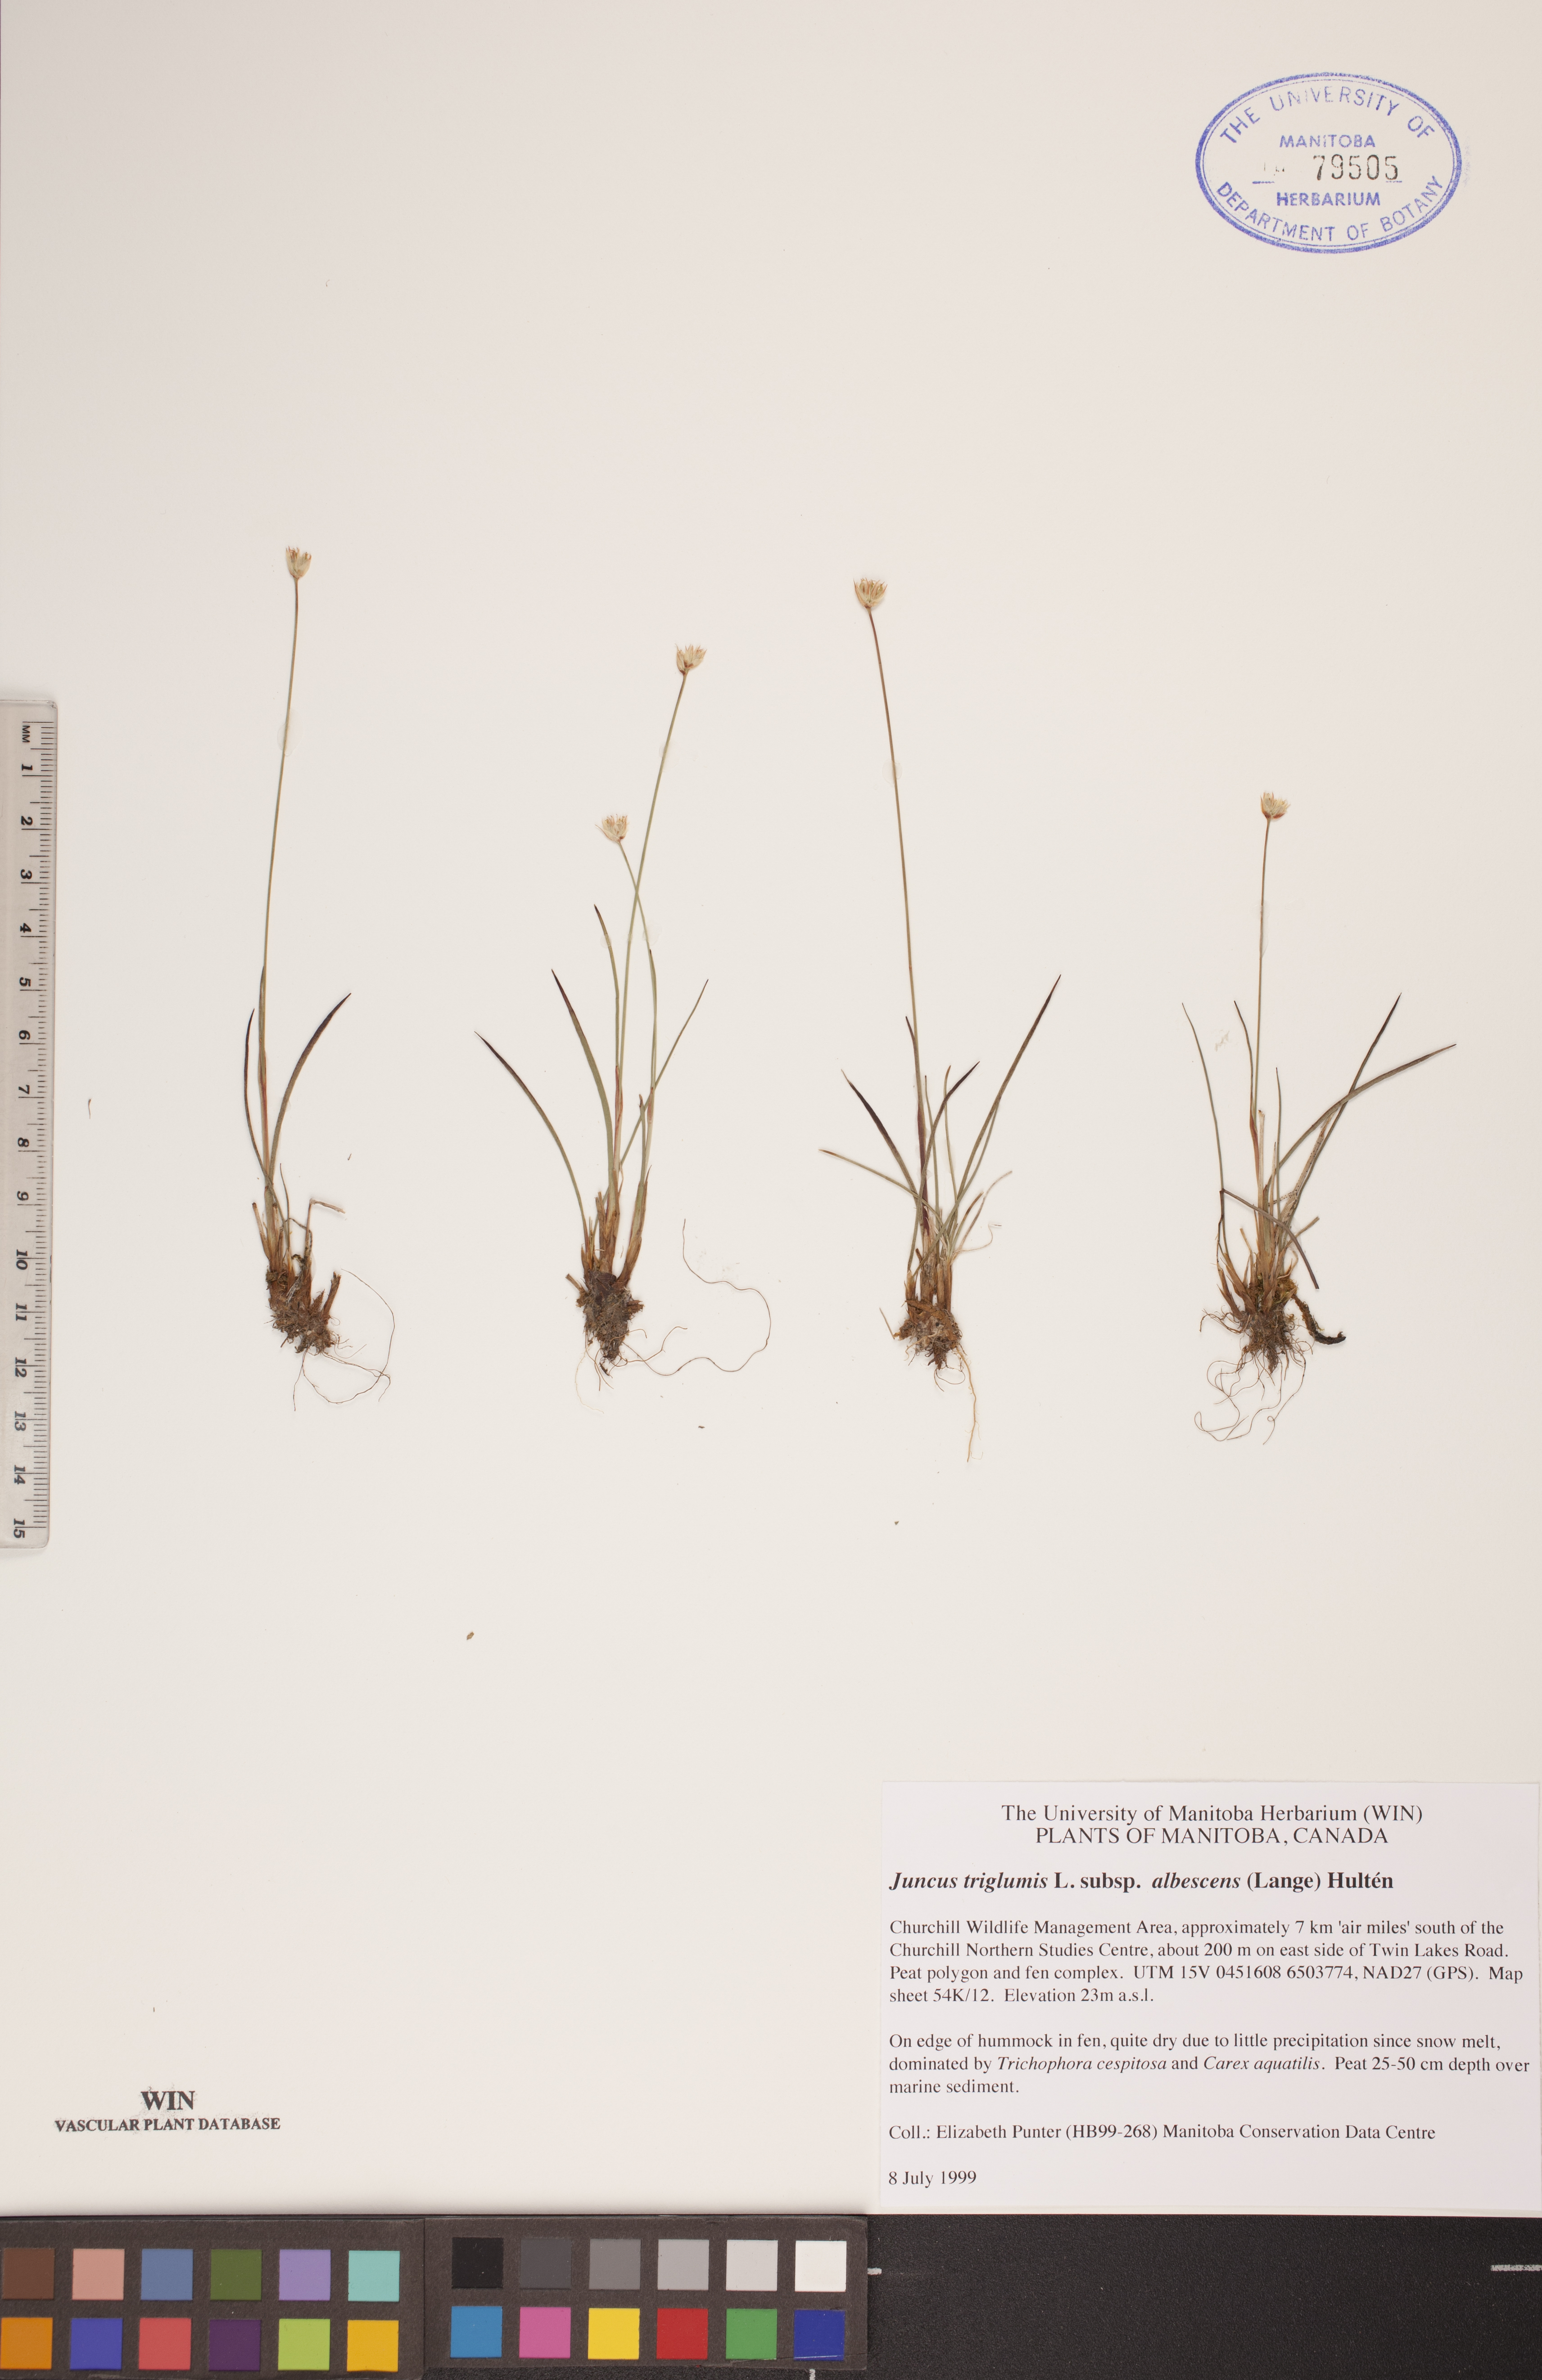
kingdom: Plantae
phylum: Tracheophyta
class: Liliopsida
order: Poales
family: Juncaceae
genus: Juncus
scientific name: Juncus albescens
